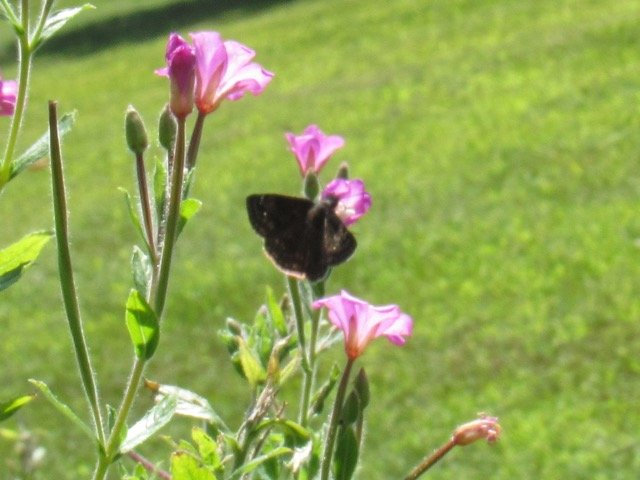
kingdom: Animalia
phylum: Arthropoda
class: Insecta
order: Lepidoptera
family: Hesperiidae
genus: Gesta
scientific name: Gesta
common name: Wild Indigo Duskywing
